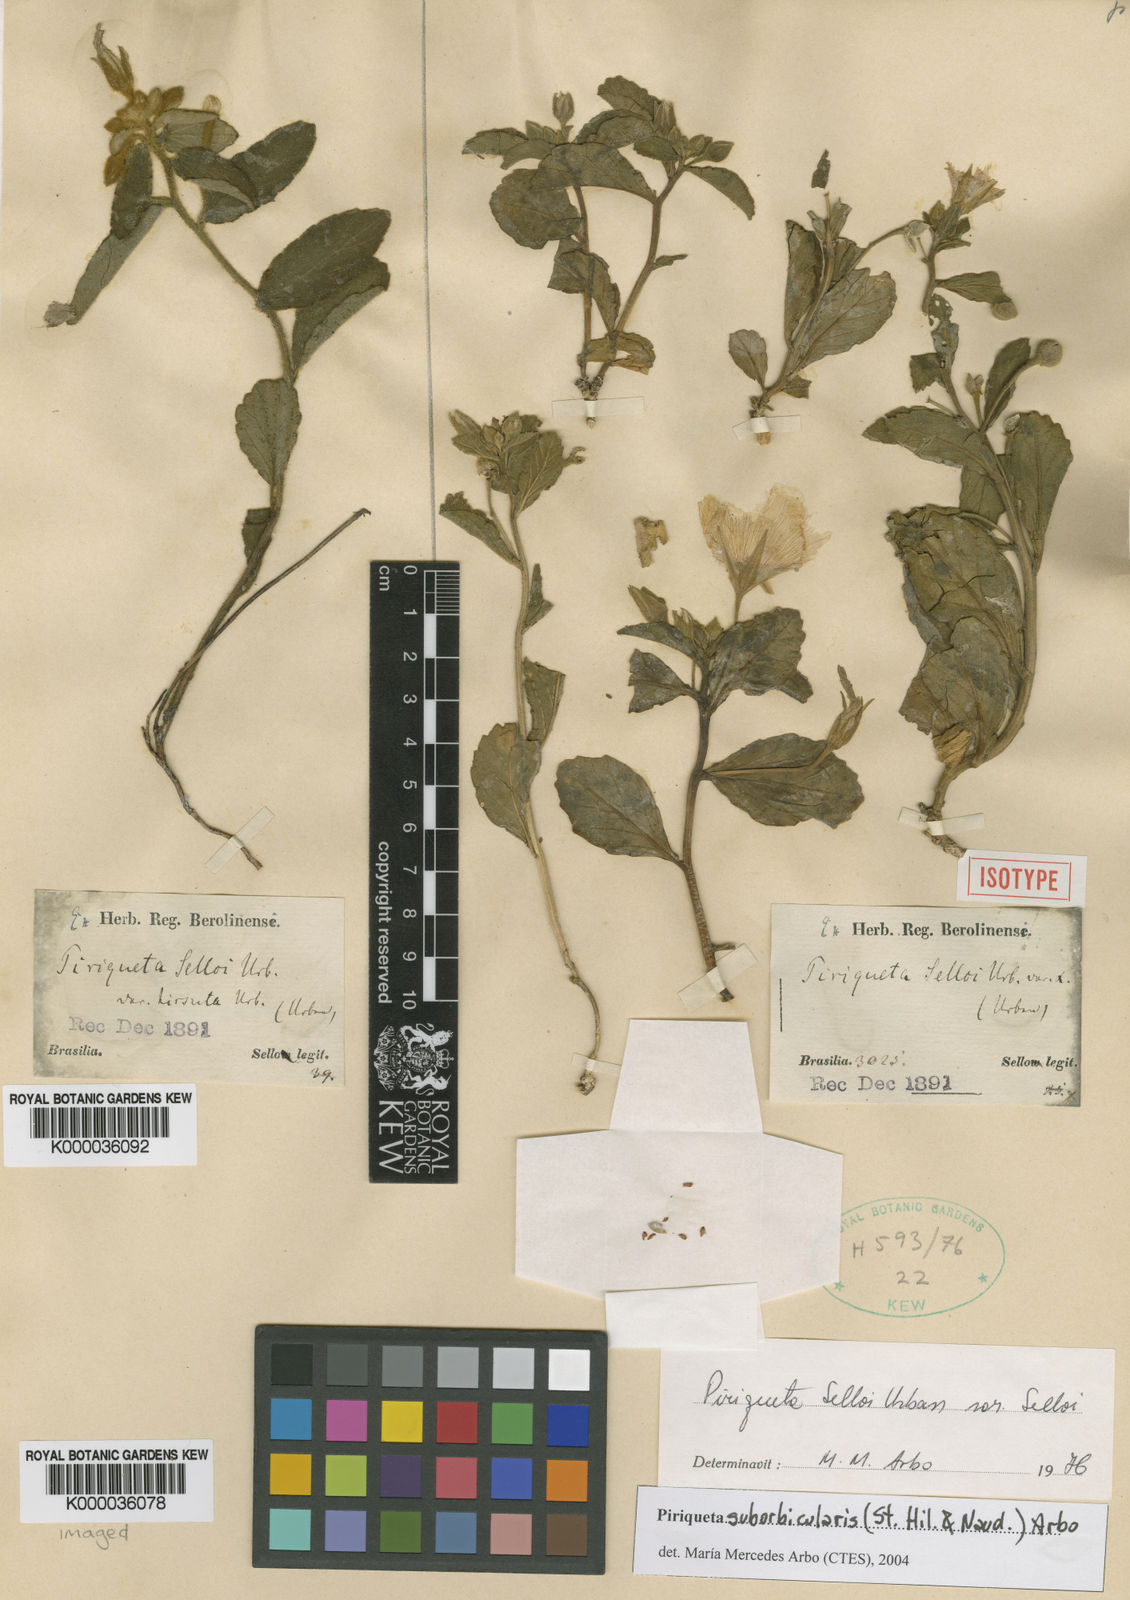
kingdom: Plantae
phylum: Tracheophyta
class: Magnoliopsida
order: Malpighiales
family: Turneraceae
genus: Piriqueta
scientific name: Piriqueta suborbicularis
